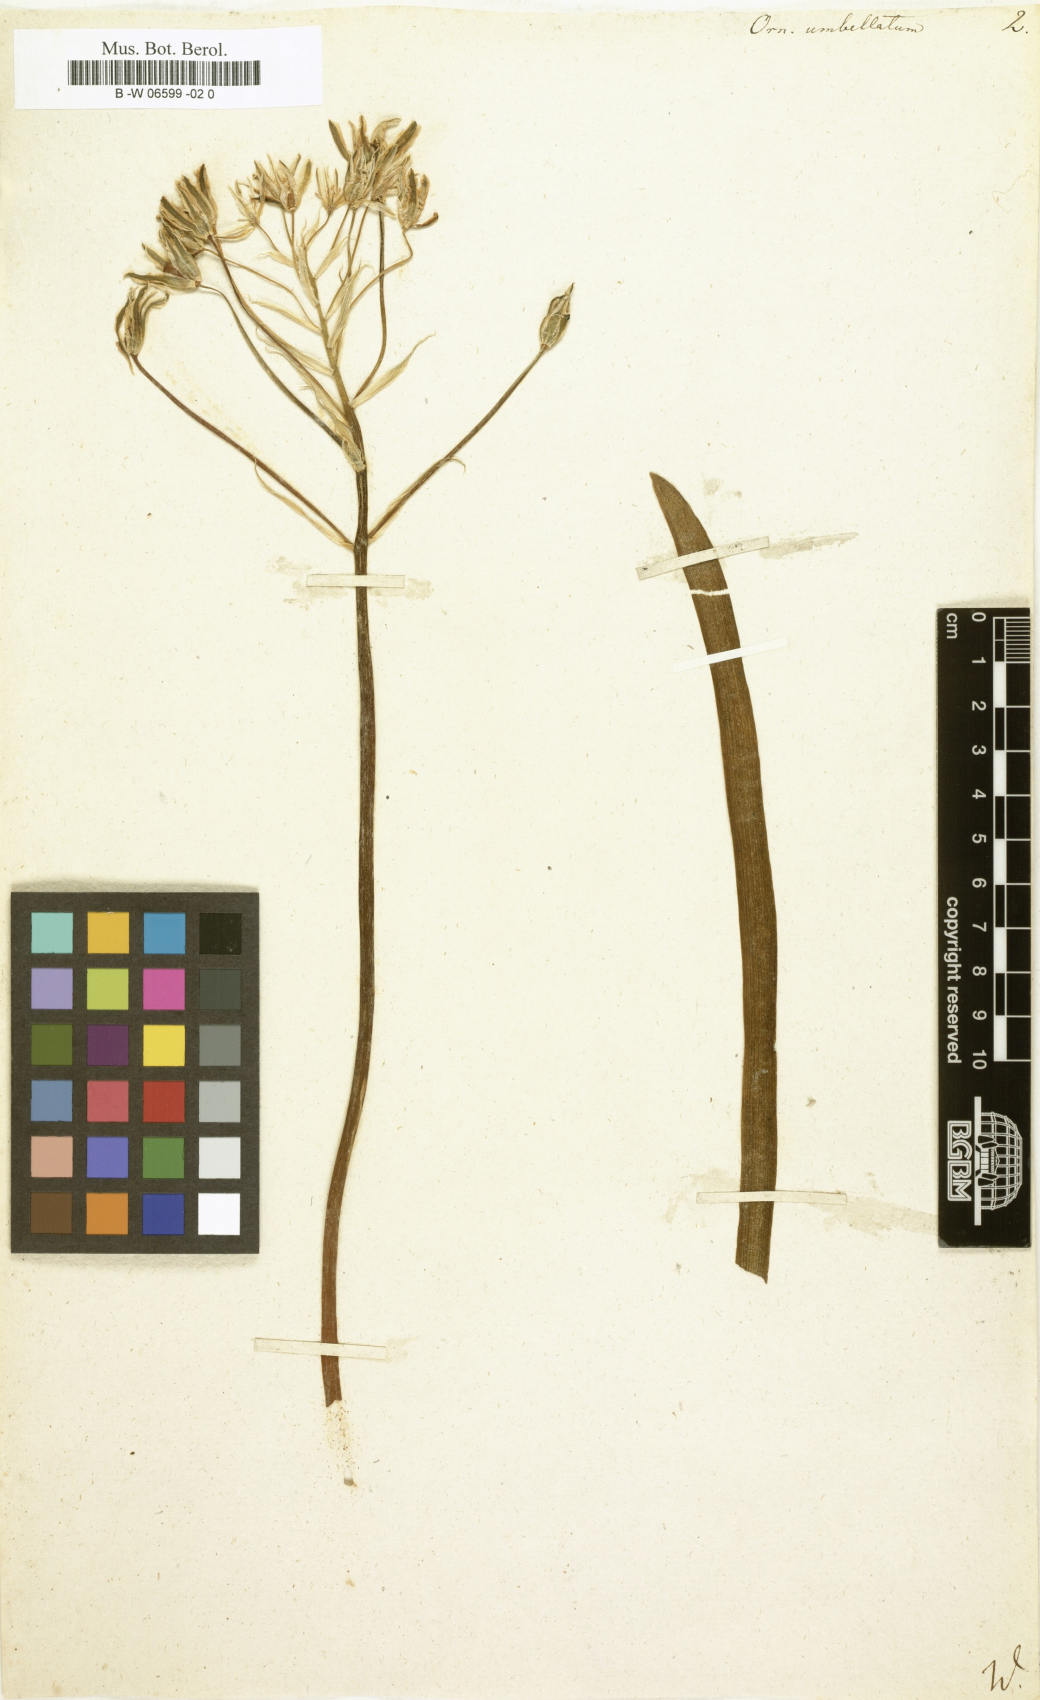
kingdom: Plantae
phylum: Tracheophyta
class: Liliopsida
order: Asparagales
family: Asparagaceae
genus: Ornithogalum
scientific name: Ornithogalum umbellatum
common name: Garden star-of-bethlehem
